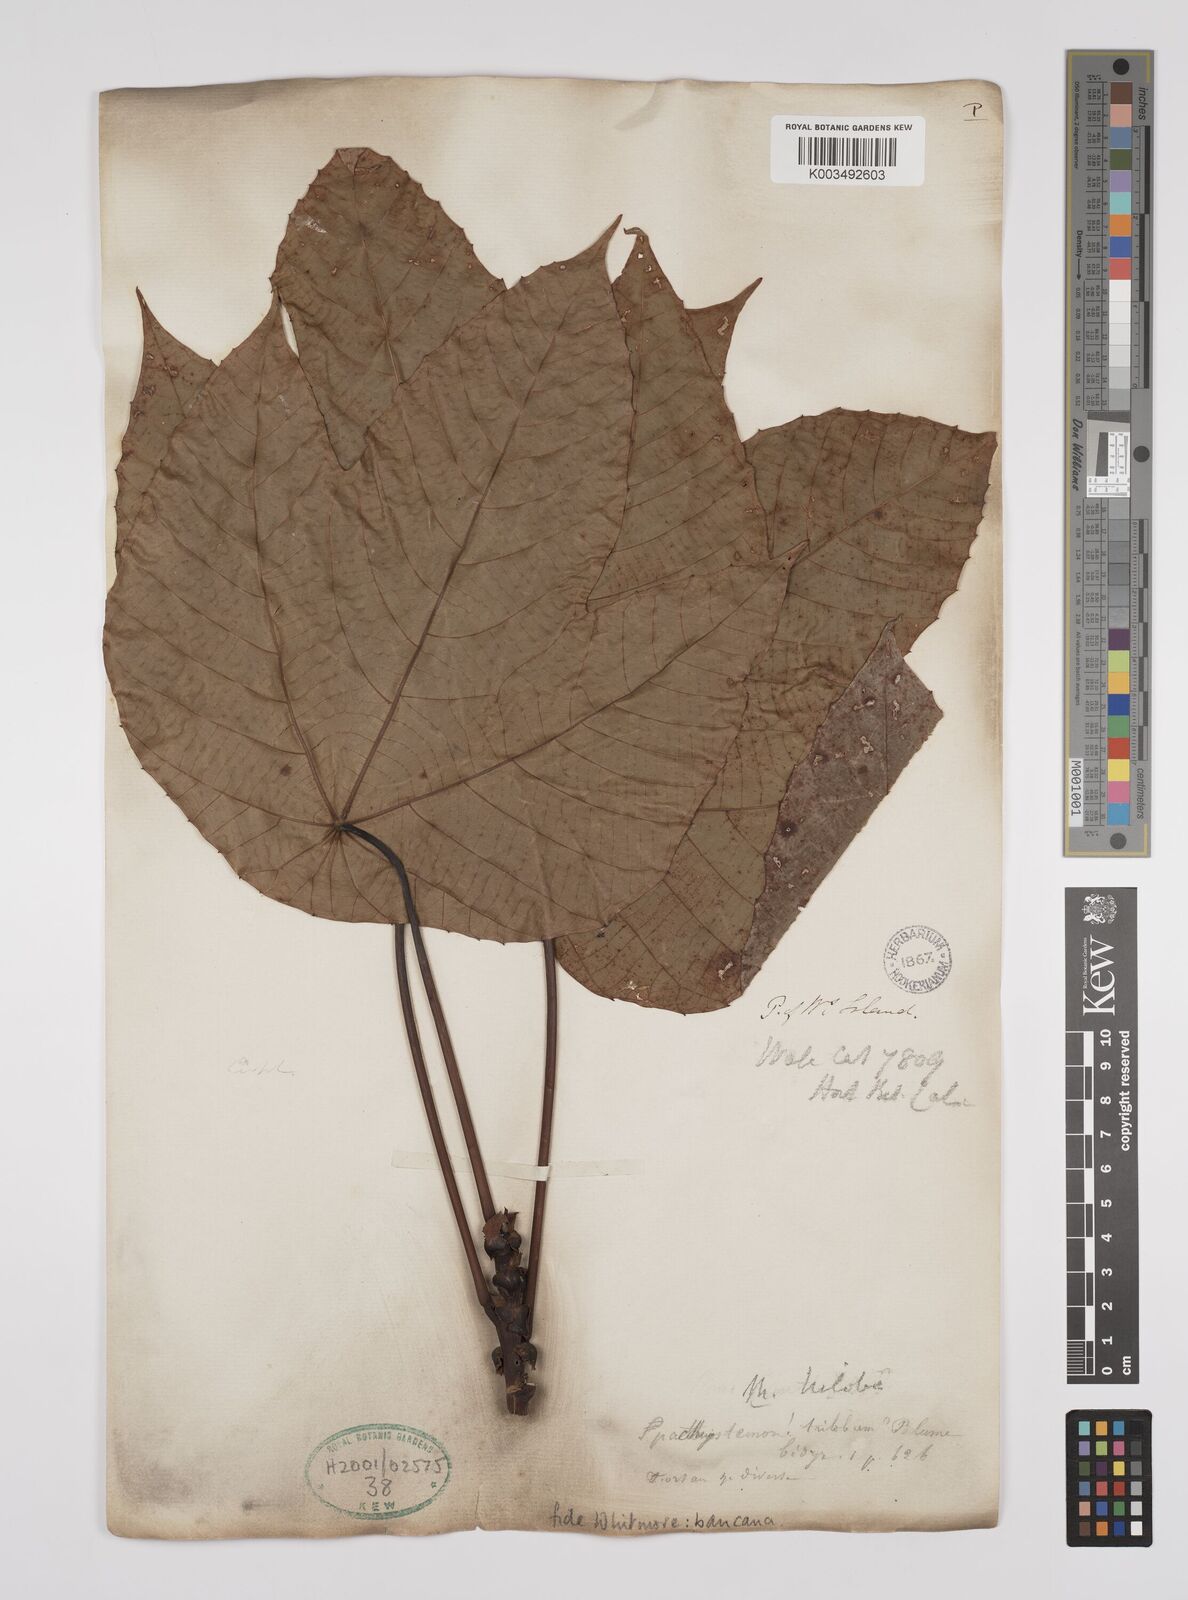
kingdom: Plantae
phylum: Tracheophyta
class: Magnoliopsida
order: Malpighiales
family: Euphorbiaceae
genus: Macaranga
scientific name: Macaranga bancana
